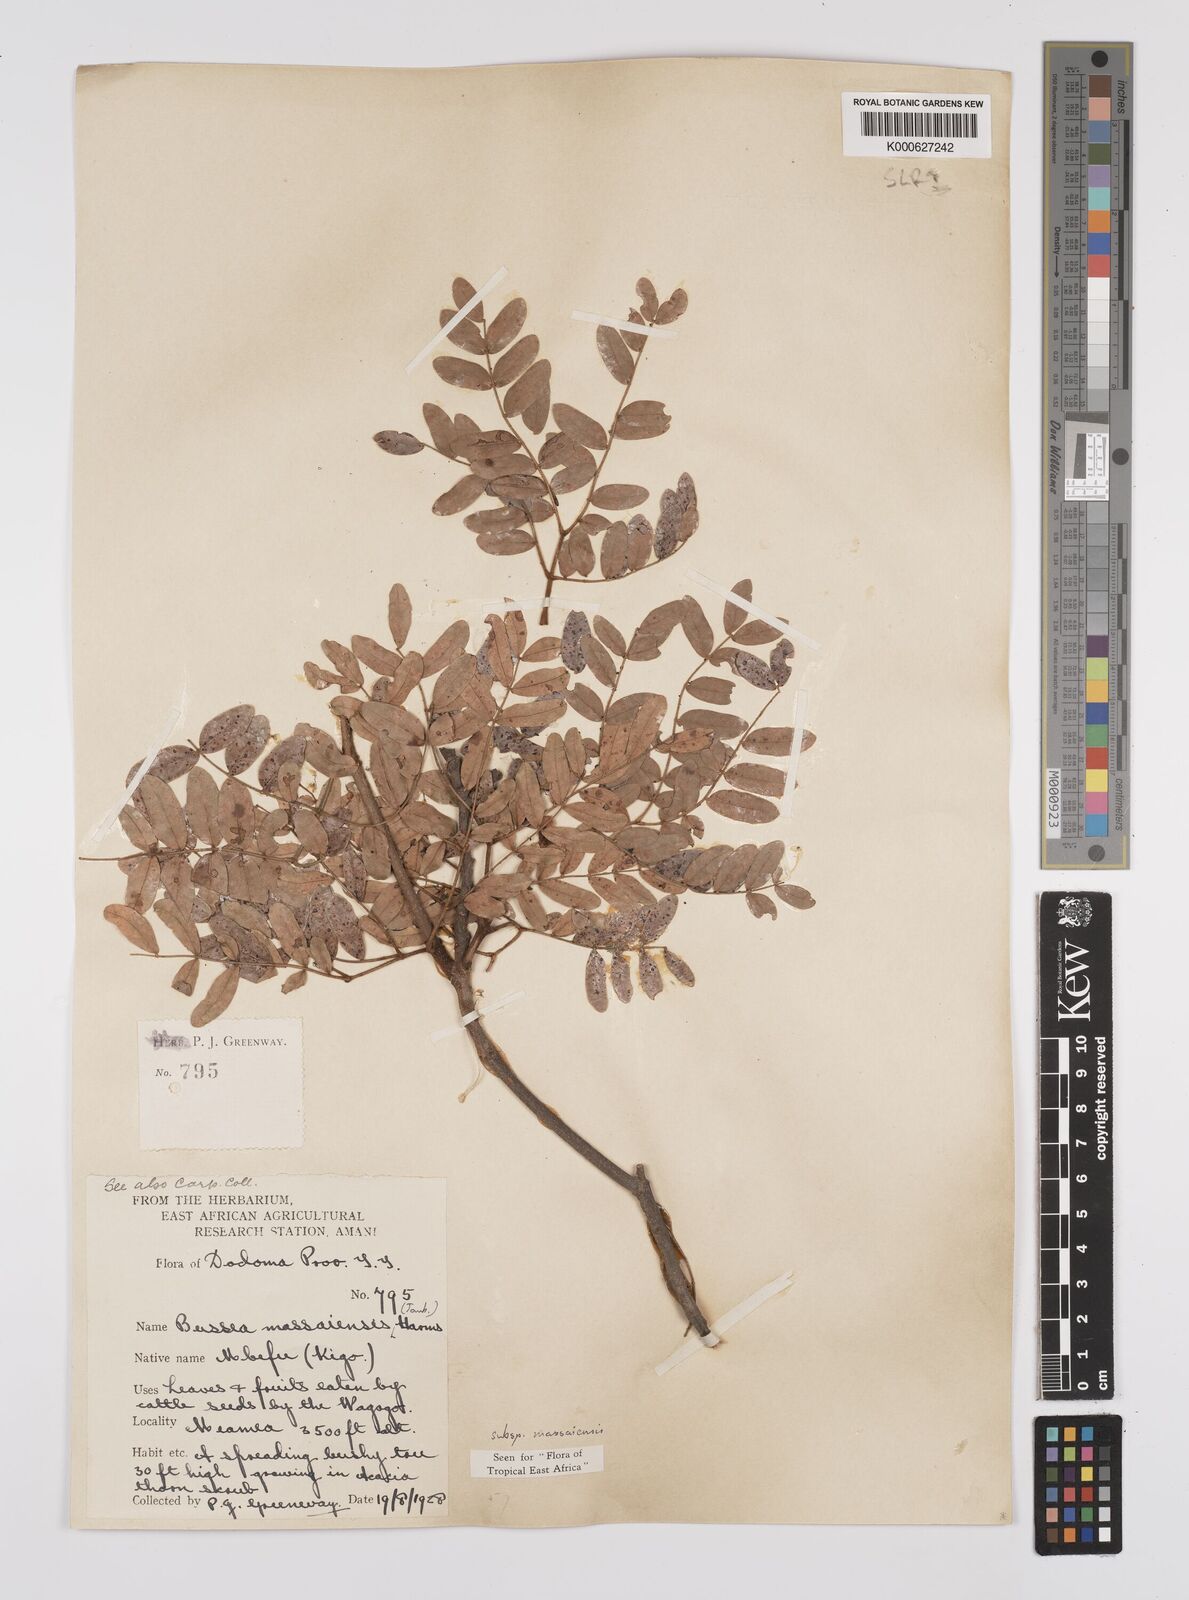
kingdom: Plantae
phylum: Tracheophyta
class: Magnoliopsida
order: Fabales
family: Fabaceae
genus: Bussea
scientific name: Bussea
